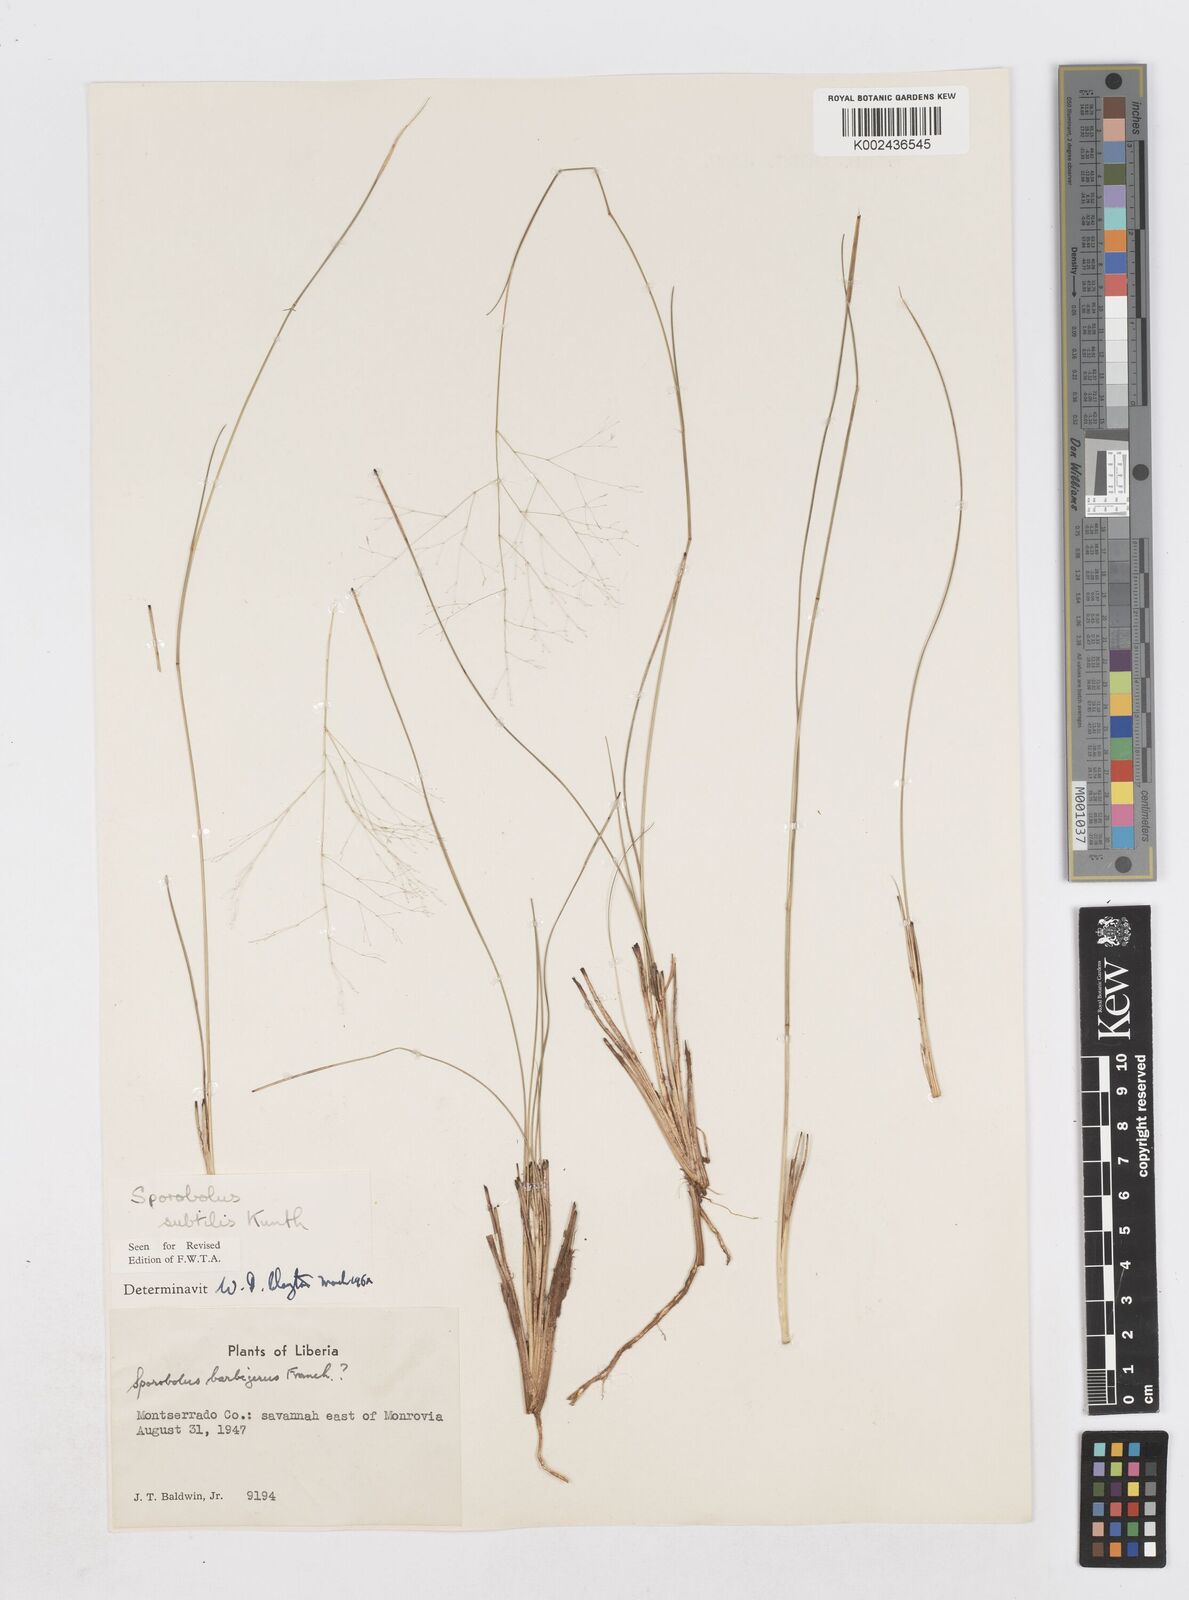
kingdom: Plantae
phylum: Tracheophyta
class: Liliopsida
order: Poales
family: Poaceae
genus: Sporobolus
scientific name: Sporobolus subtilis
